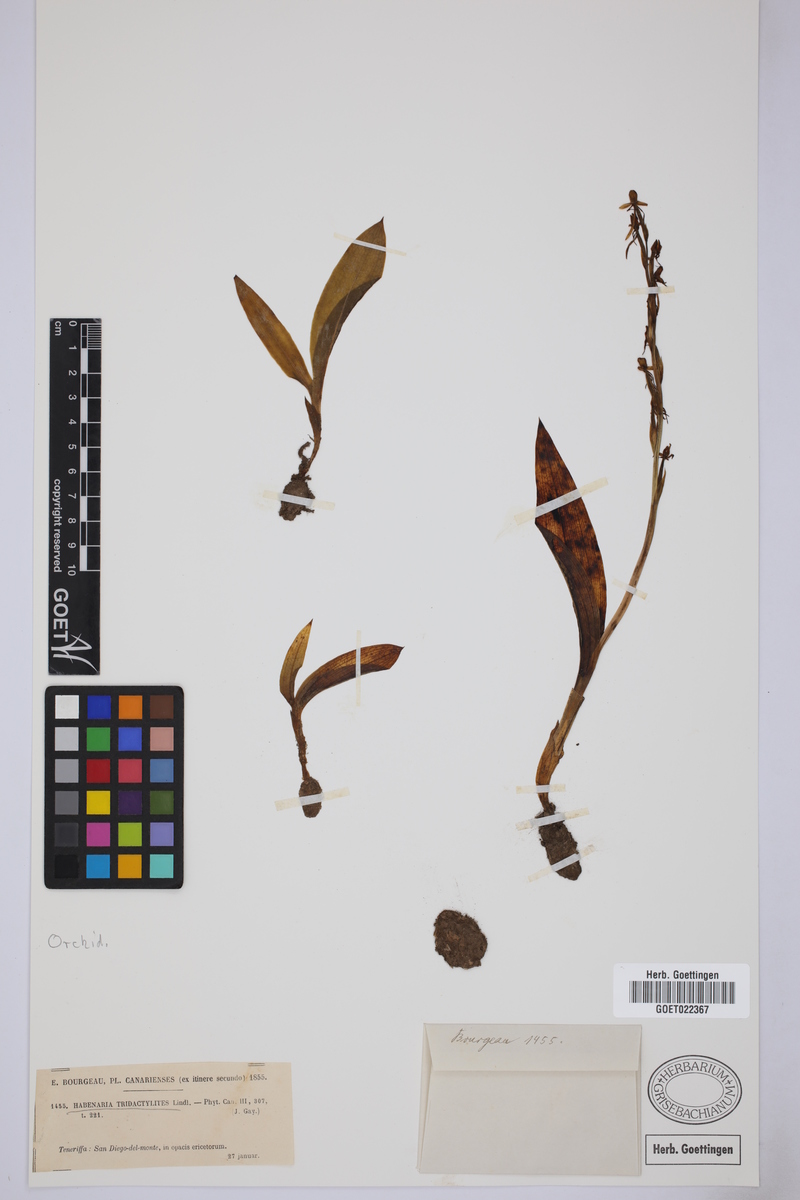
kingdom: Plantae
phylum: Tracheophyta
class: Liliopsida
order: Asparagales
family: Orchidaceae
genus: Habenaria
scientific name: Habenaria tridactylites
